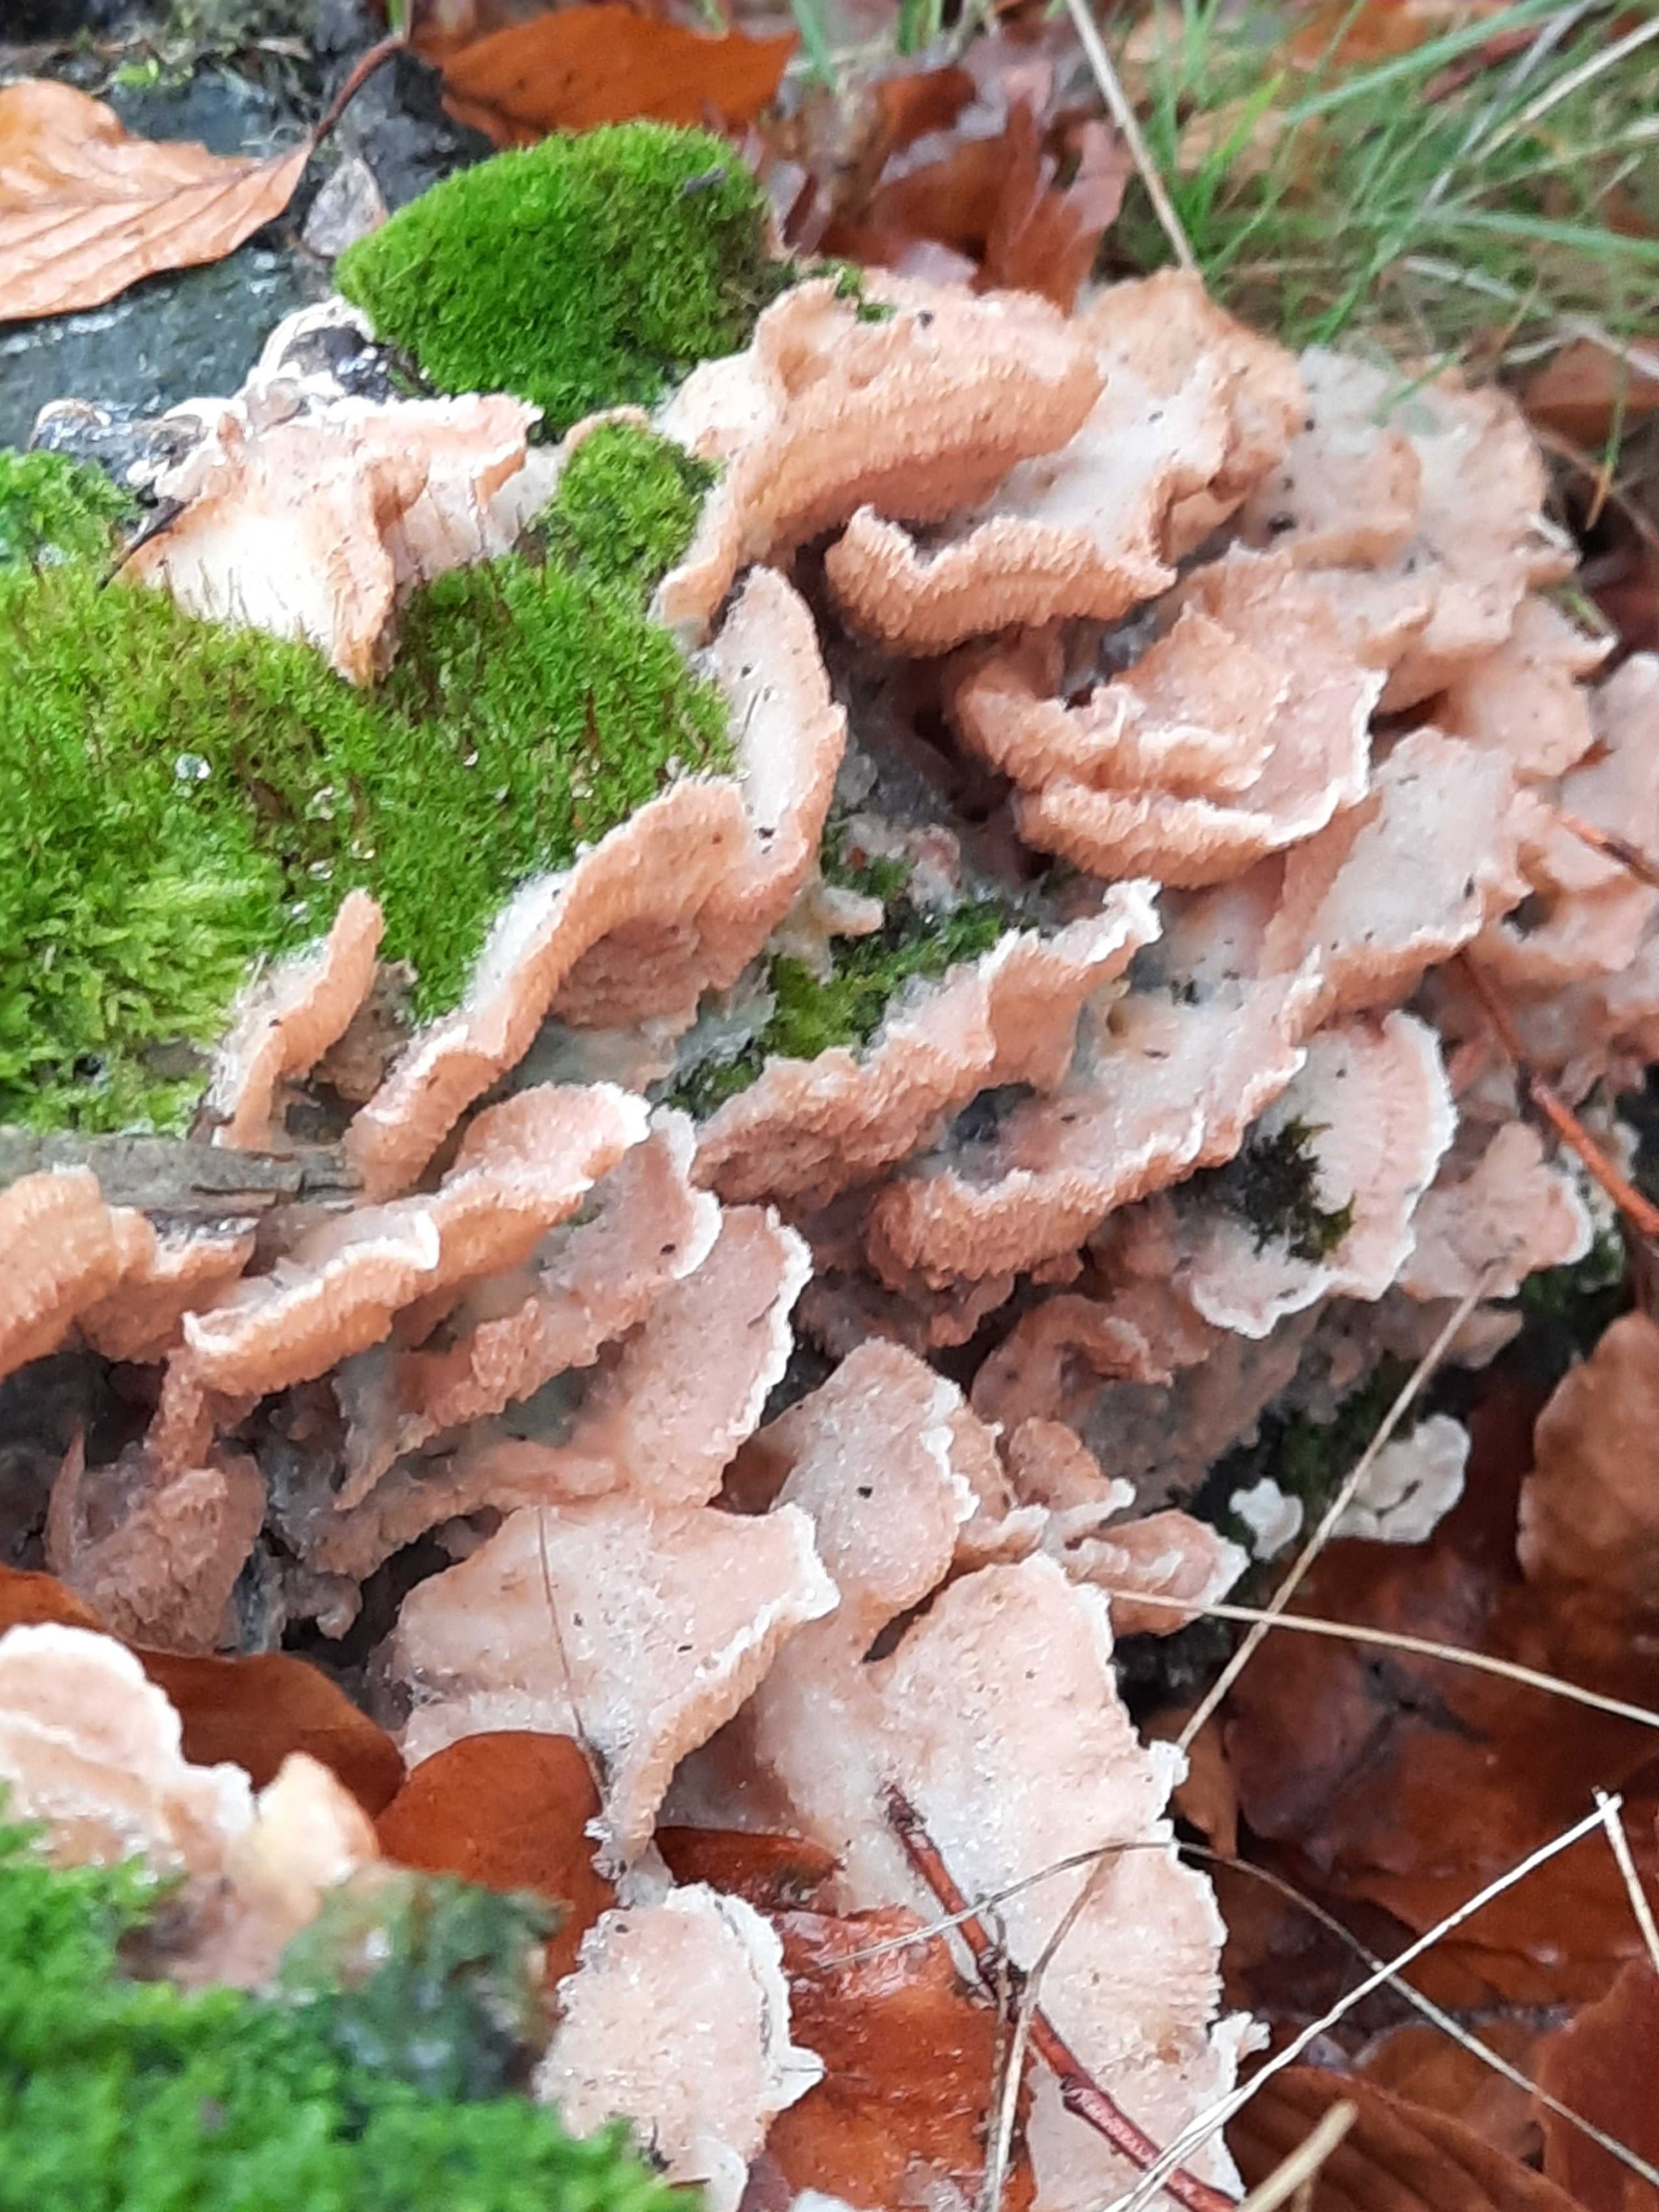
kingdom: Fungi
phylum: Basidiomycota
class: Agaricomycetes
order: Polyporales
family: Meruliaceae
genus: Phlebia
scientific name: Phlebia tremellosa
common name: bævrende åresvamp
